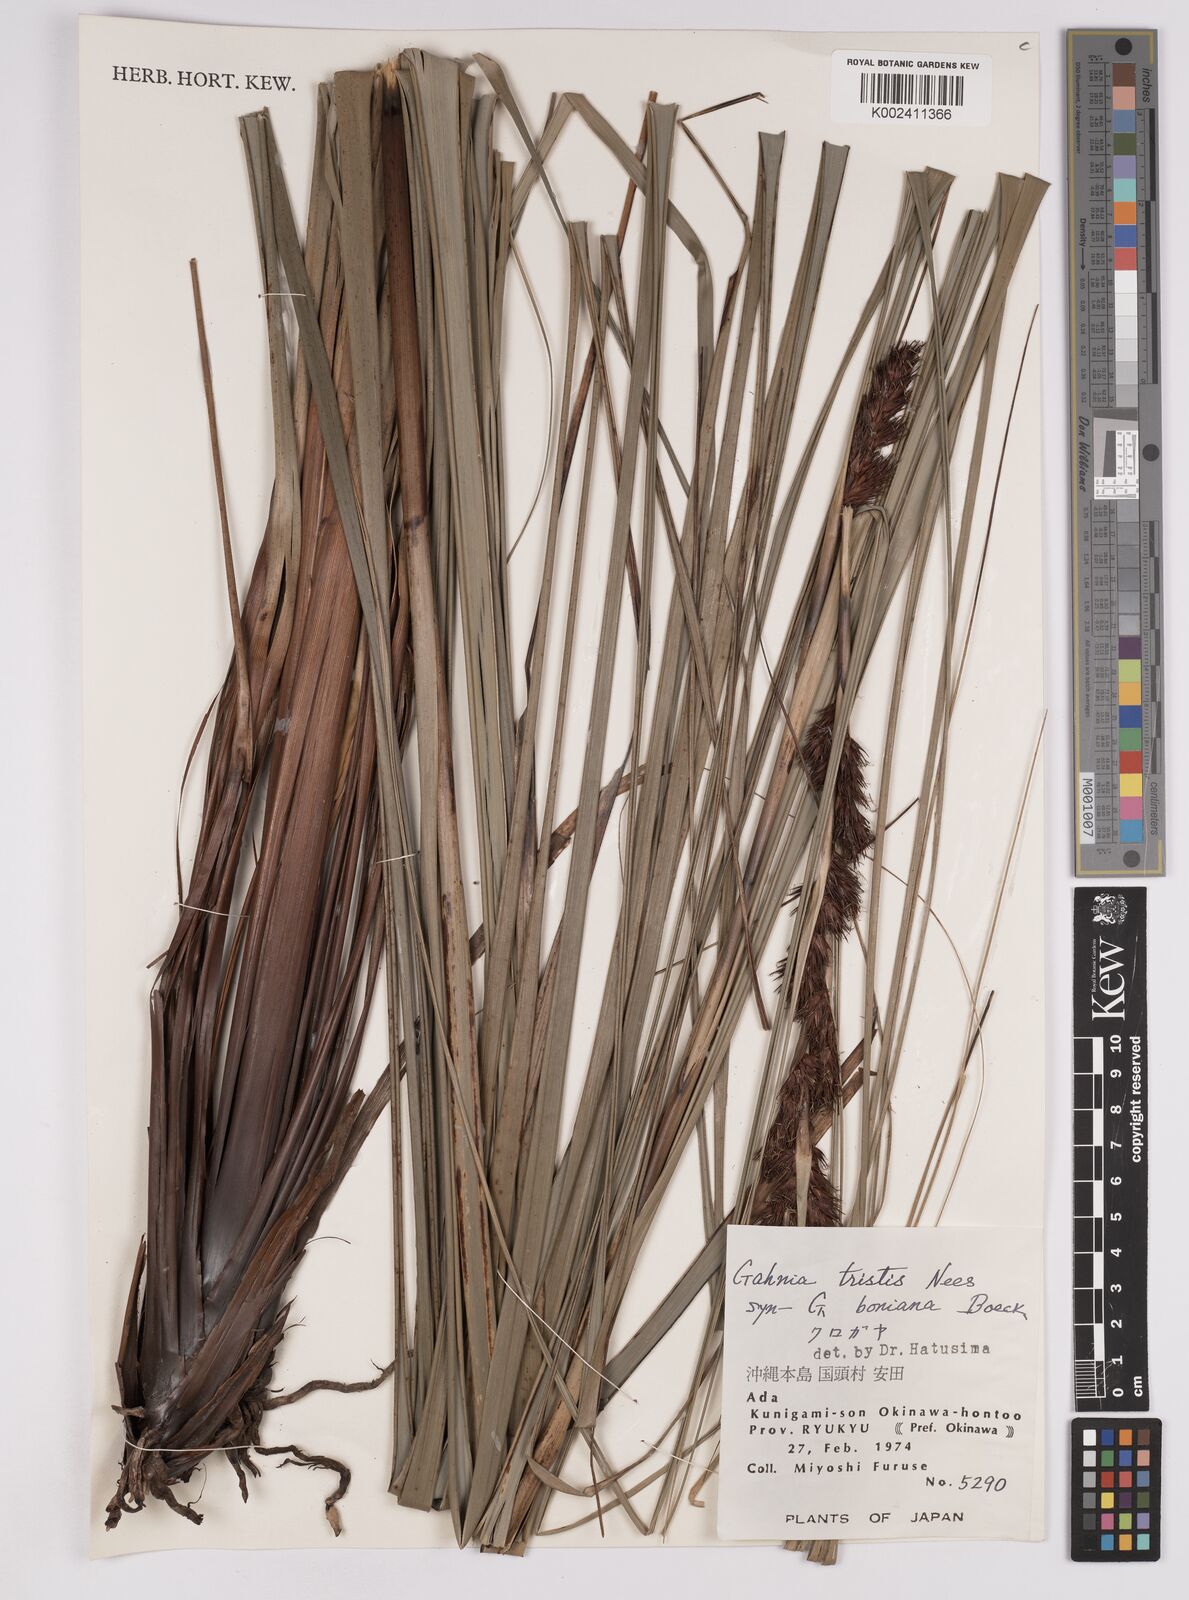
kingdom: Plantae
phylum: Tracheophyta
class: Liliopsida
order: Poales
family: Cyperaceae
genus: Gahnia
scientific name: Gahnia tristis
